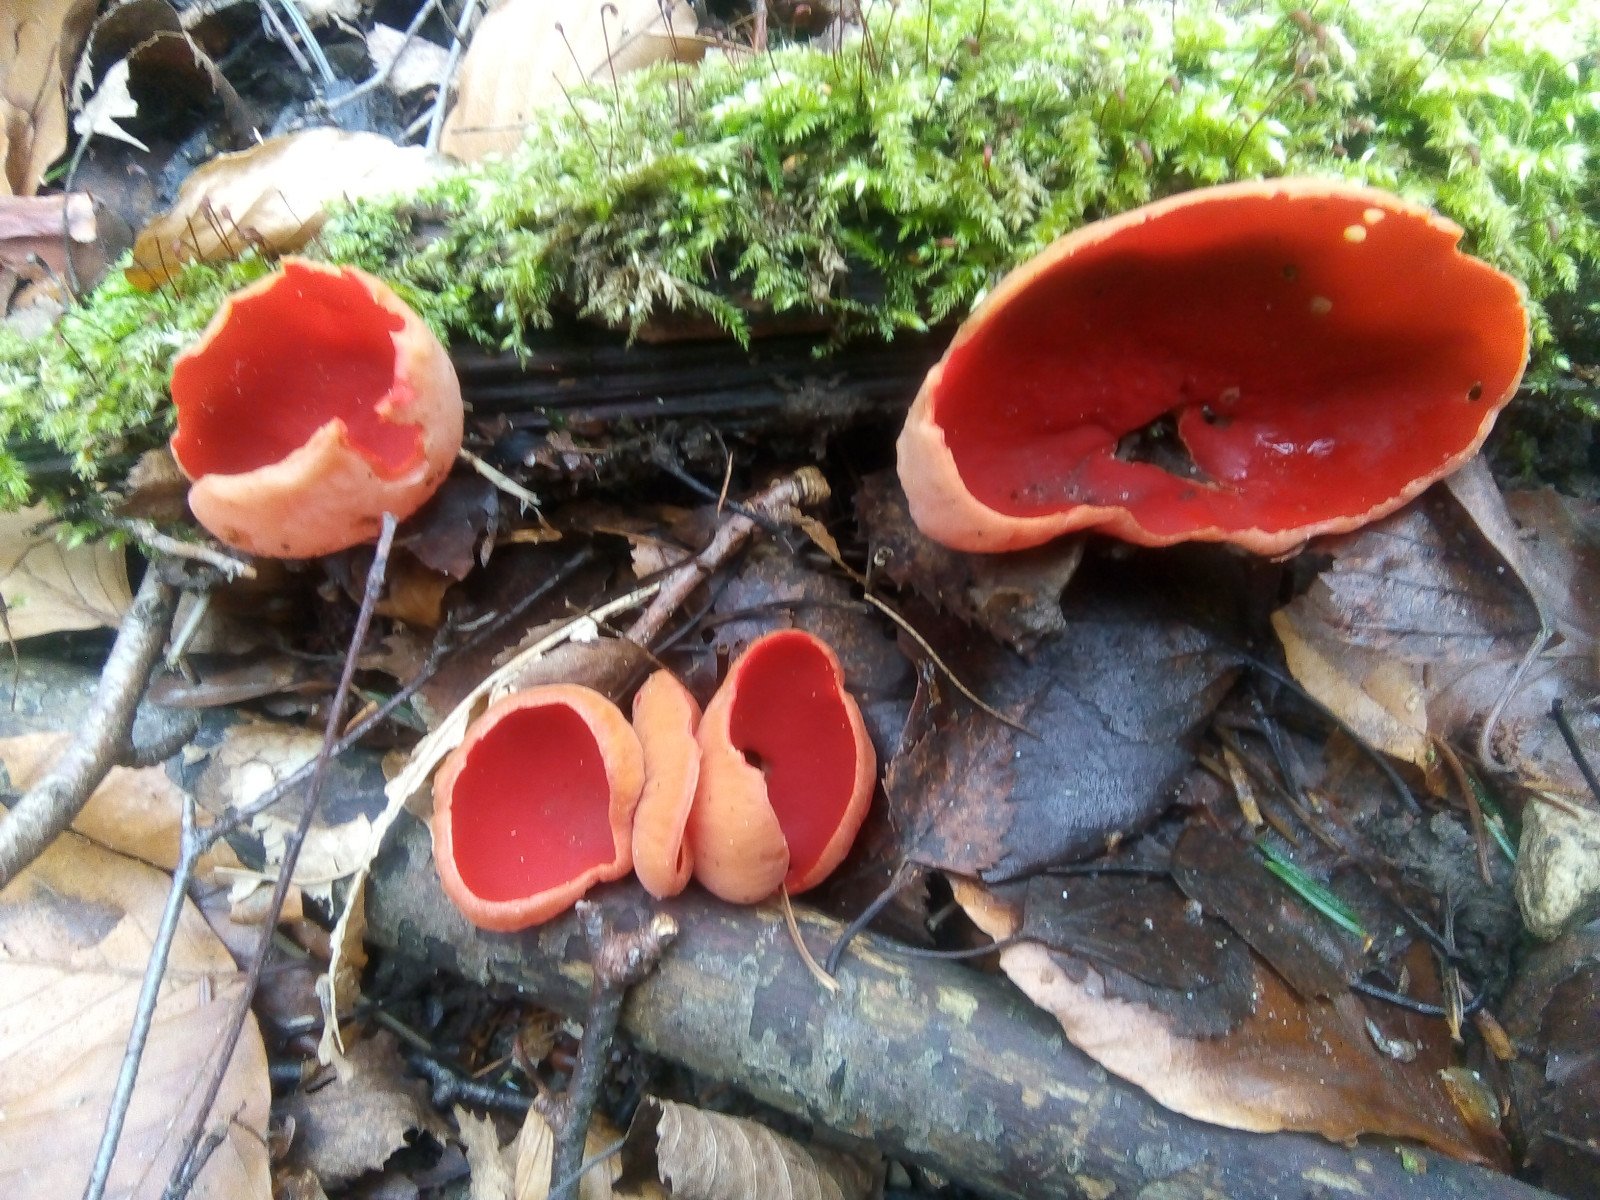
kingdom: Fungi
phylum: Ascomycota
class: Pezizomycetes
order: Pezizales
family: Sarcoscyphaceae
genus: Sarcoscypha
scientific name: Sarcoscypha austriaca
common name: krølhåret pragtbæger
